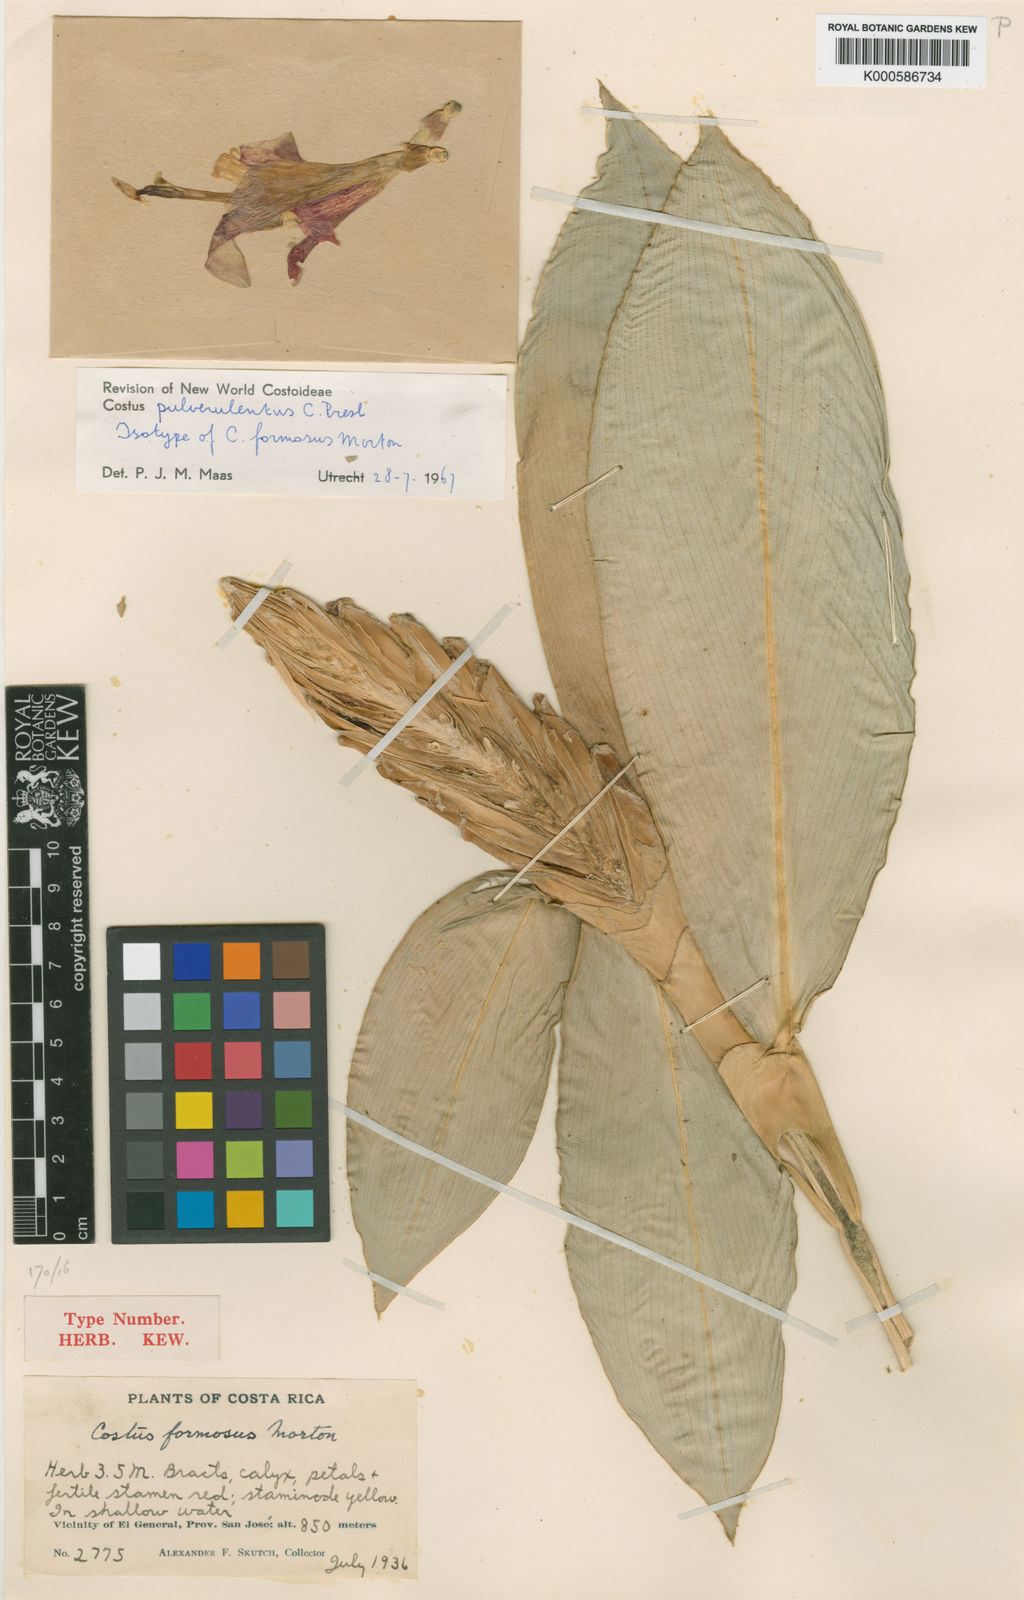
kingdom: Plantae
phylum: Tracheophyta
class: Liliopsida
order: Zingiberales
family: Costaceae
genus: Costus
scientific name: Costus pulverulentus
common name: Spiral ginger
